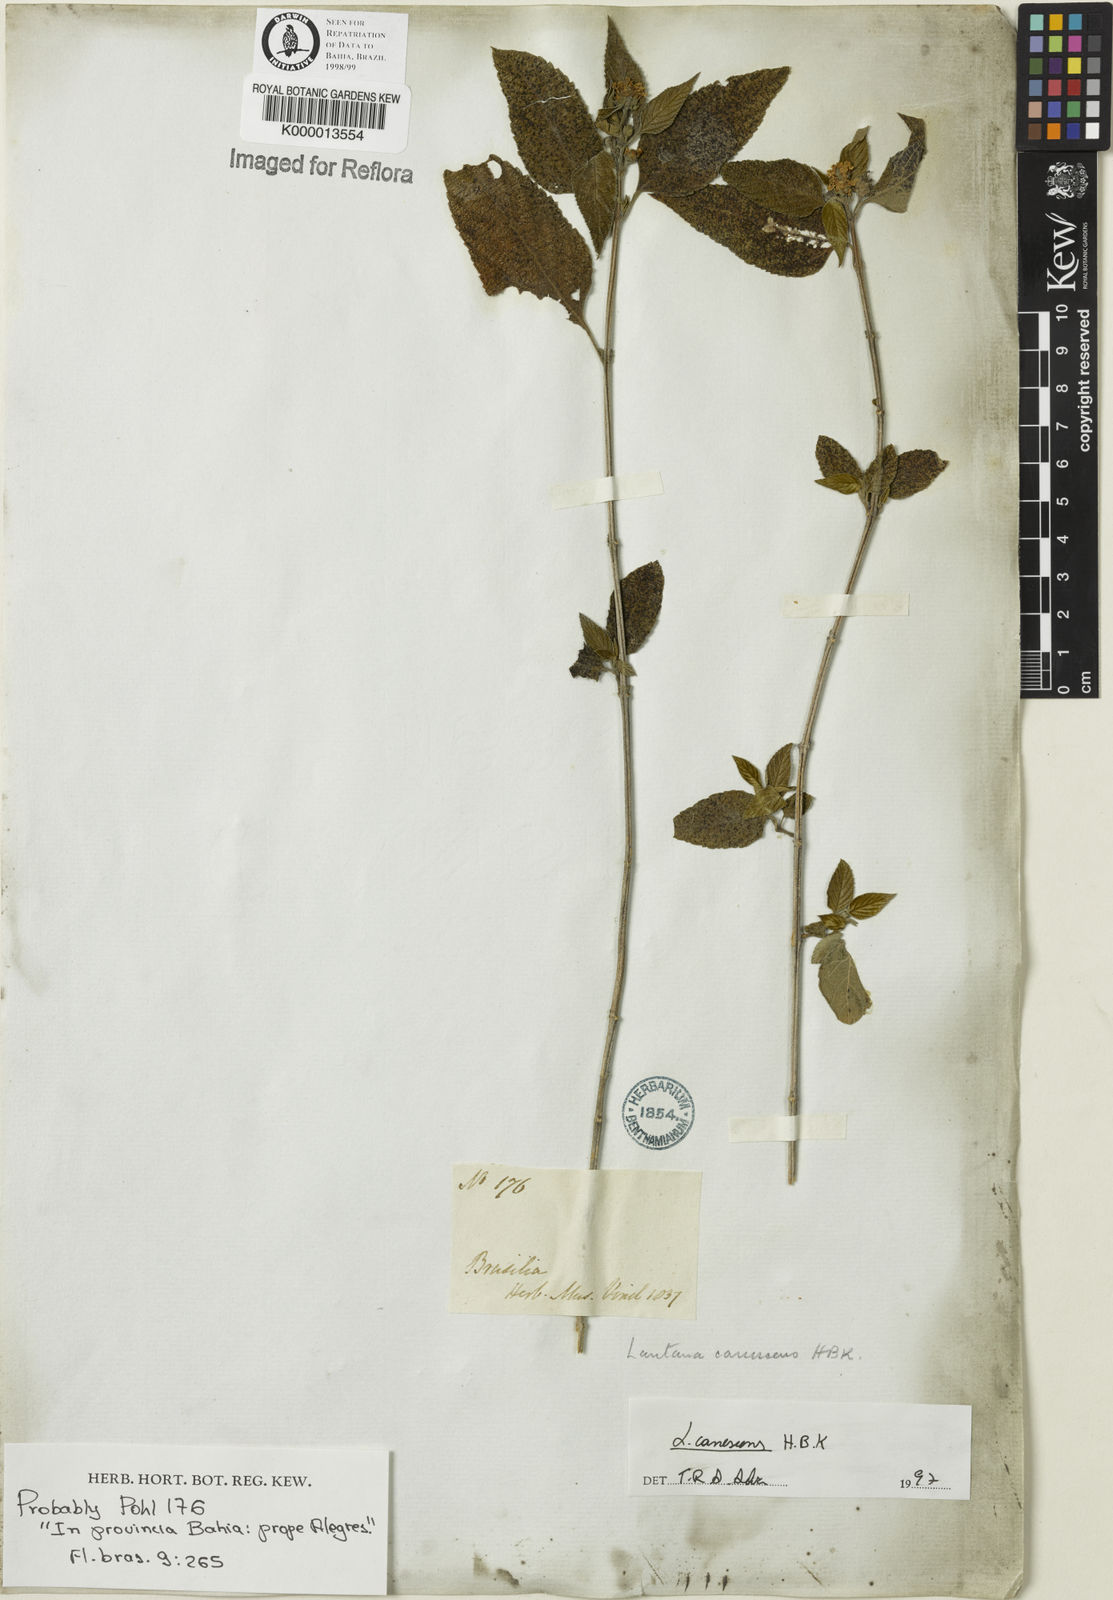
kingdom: Plantae
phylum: Tracheophyta
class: Magnoliopsida
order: Lamiales
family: Verbenaceae
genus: Lantana
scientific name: Lantana canescens
